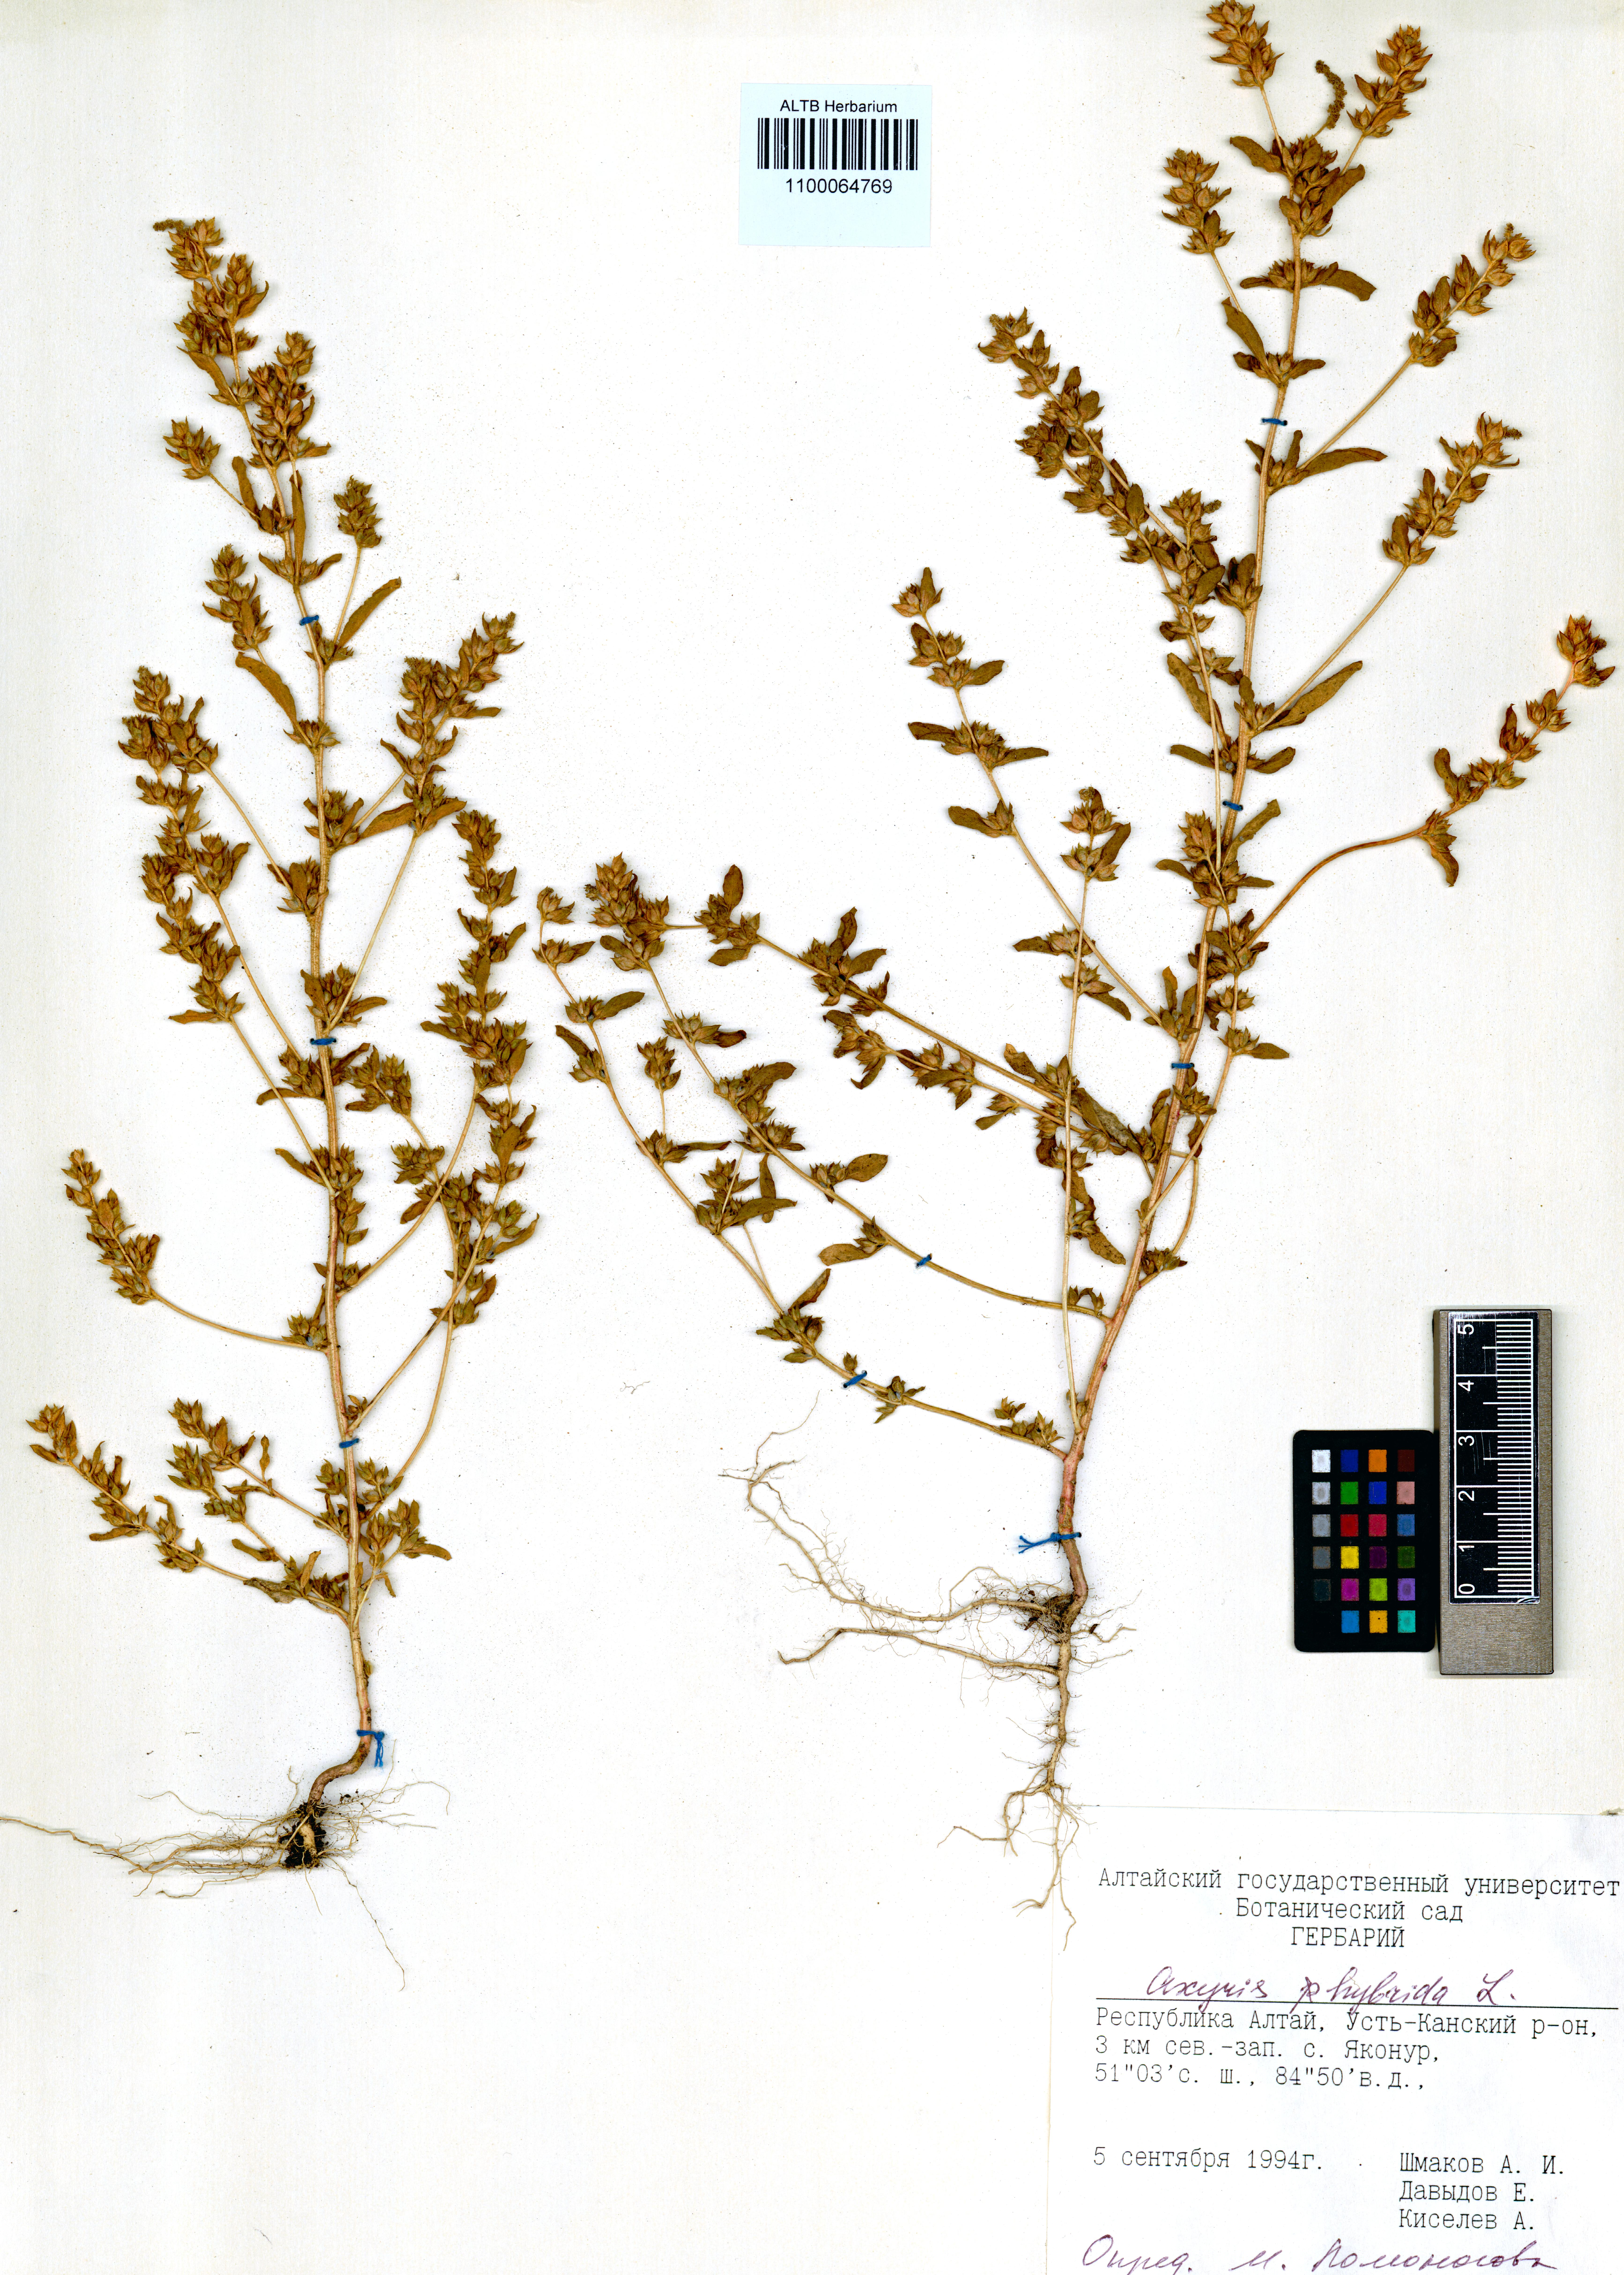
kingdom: Plantae
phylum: Tracheophyta
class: Magnoliopsida
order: Caryophyllales
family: Amaranthaceae
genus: Axyris
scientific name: Axyris hybrida
